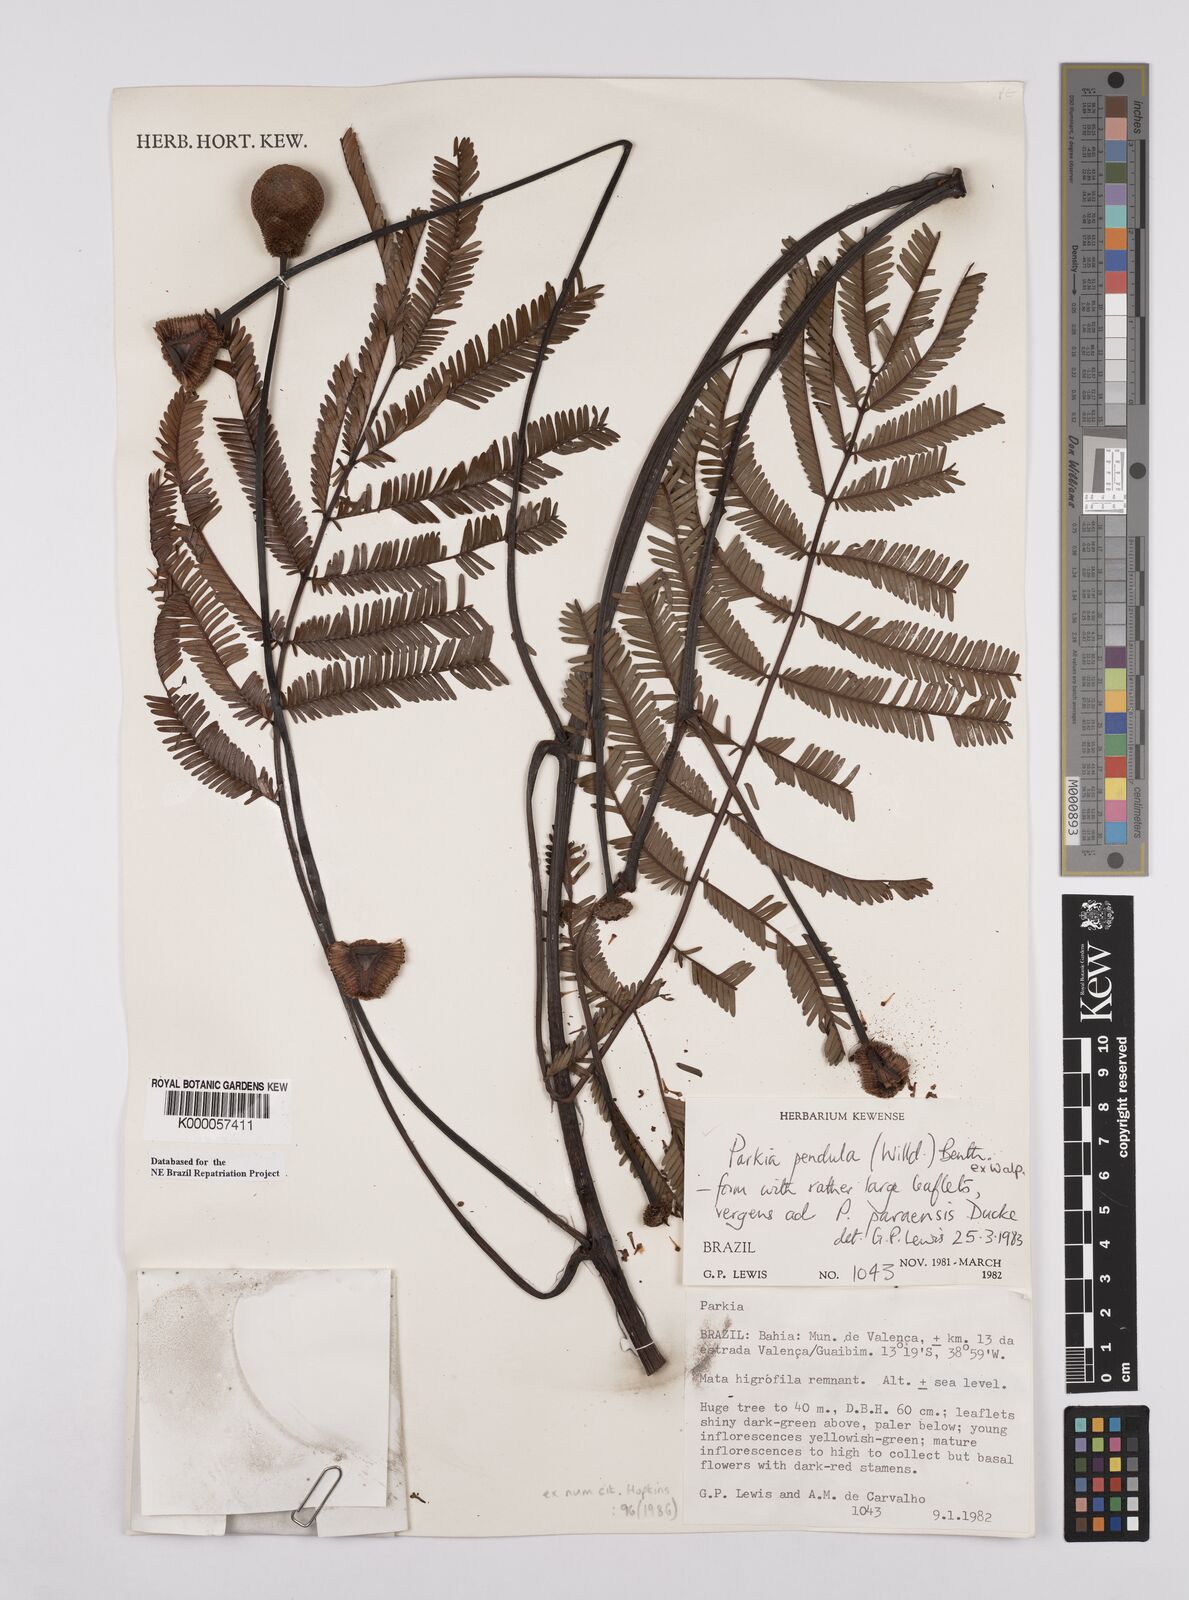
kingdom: Plantae
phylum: Tracheophyta
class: Magnoliopsida
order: Fabales
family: Fabaceae
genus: Parkia
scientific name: Parkia pendula
